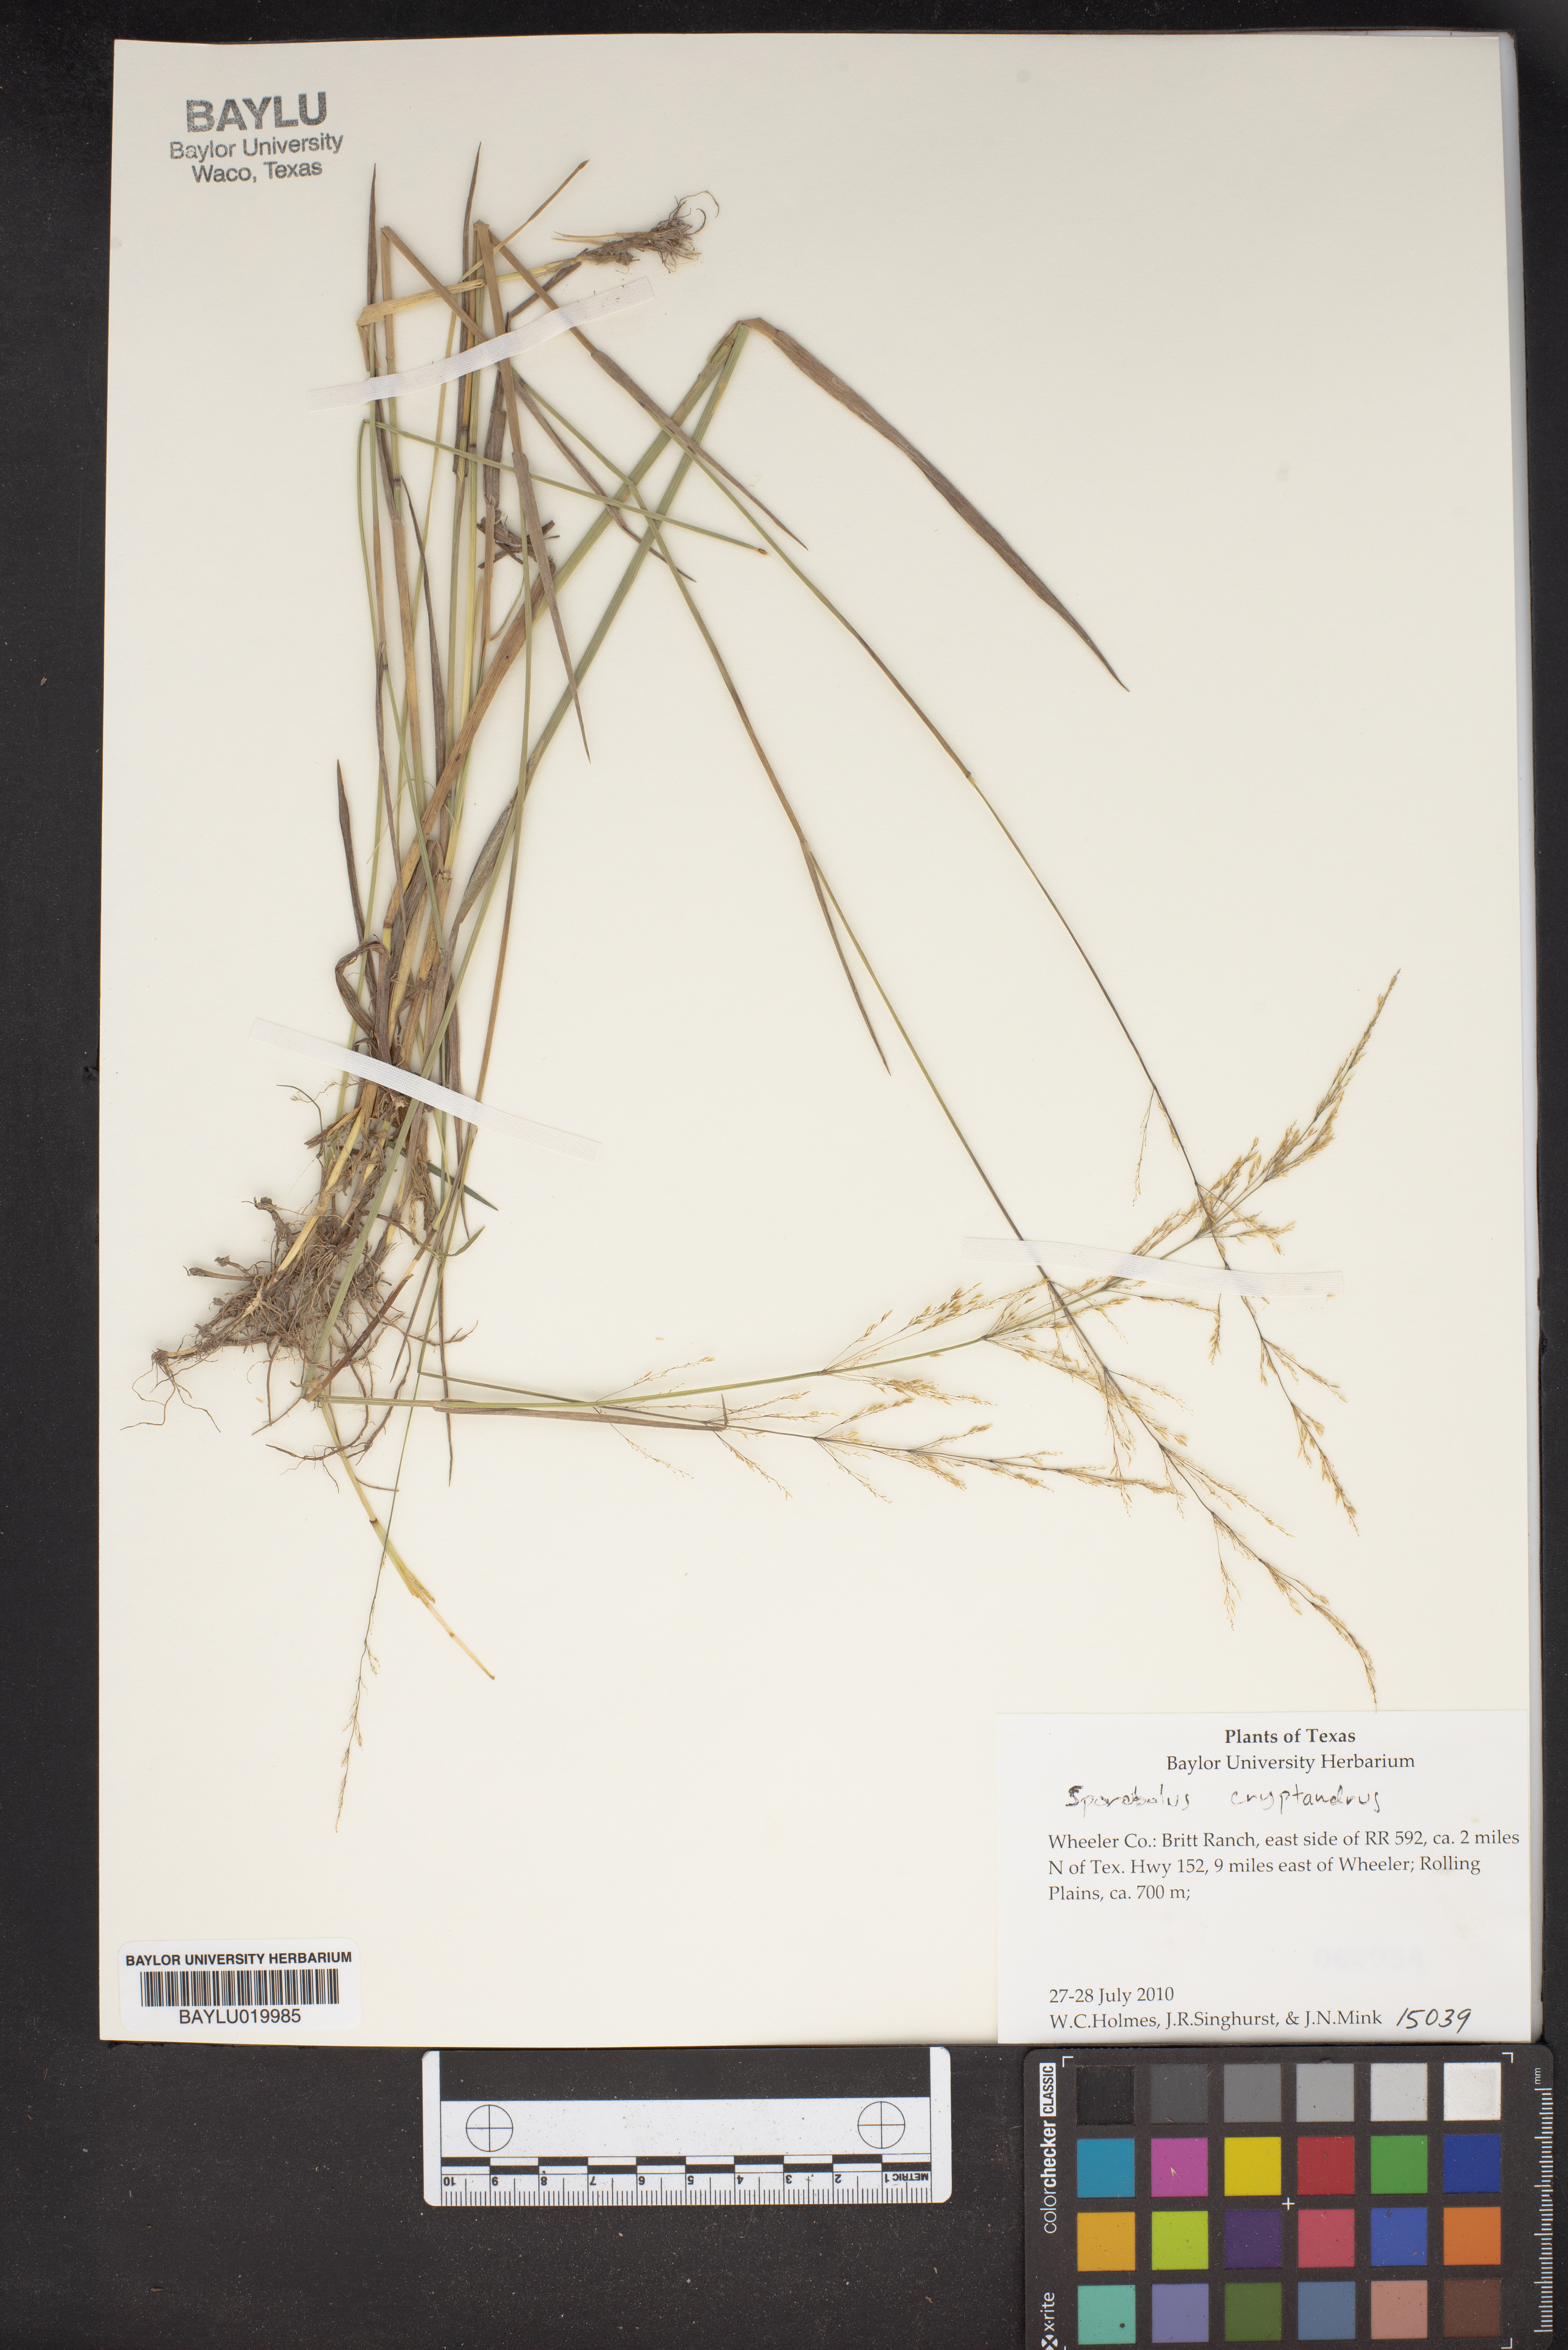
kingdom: Plantae
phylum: Tracheophyta
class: Liliopsida
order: Poales
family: Poaceae
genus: Sporobolus
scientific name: Sporobolus cryptandrus
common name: Sand dropseed
